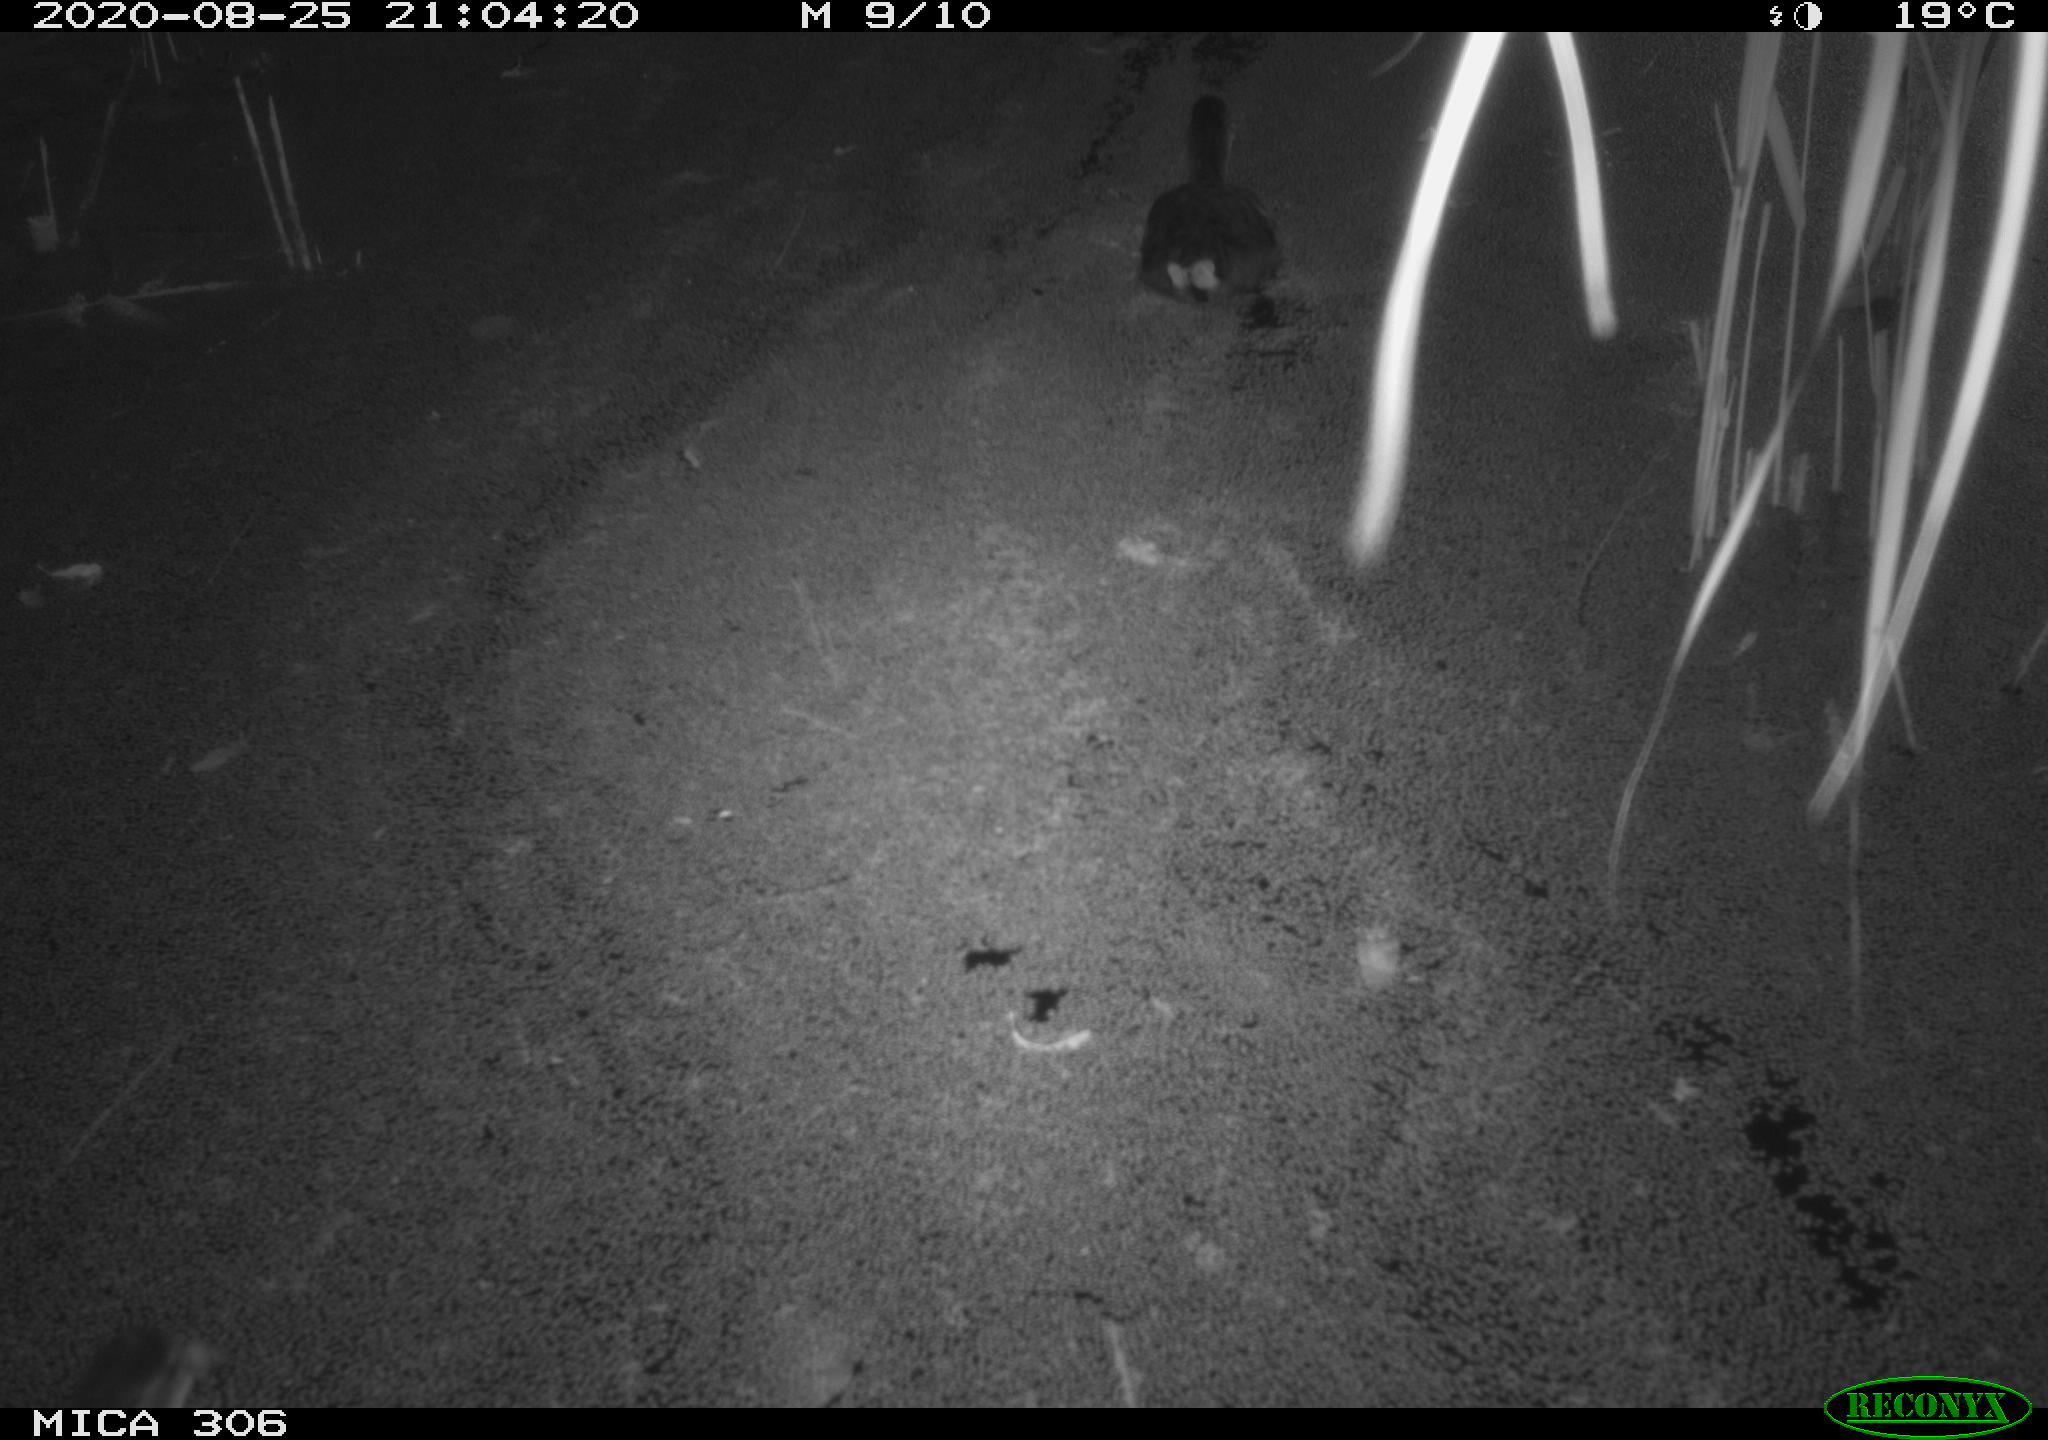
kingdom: Animalia
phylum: Chordata
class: Aves
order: Gruiformes
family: Rallidae
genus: Fulica
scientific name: Fulica atra
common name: Eurasian coot
